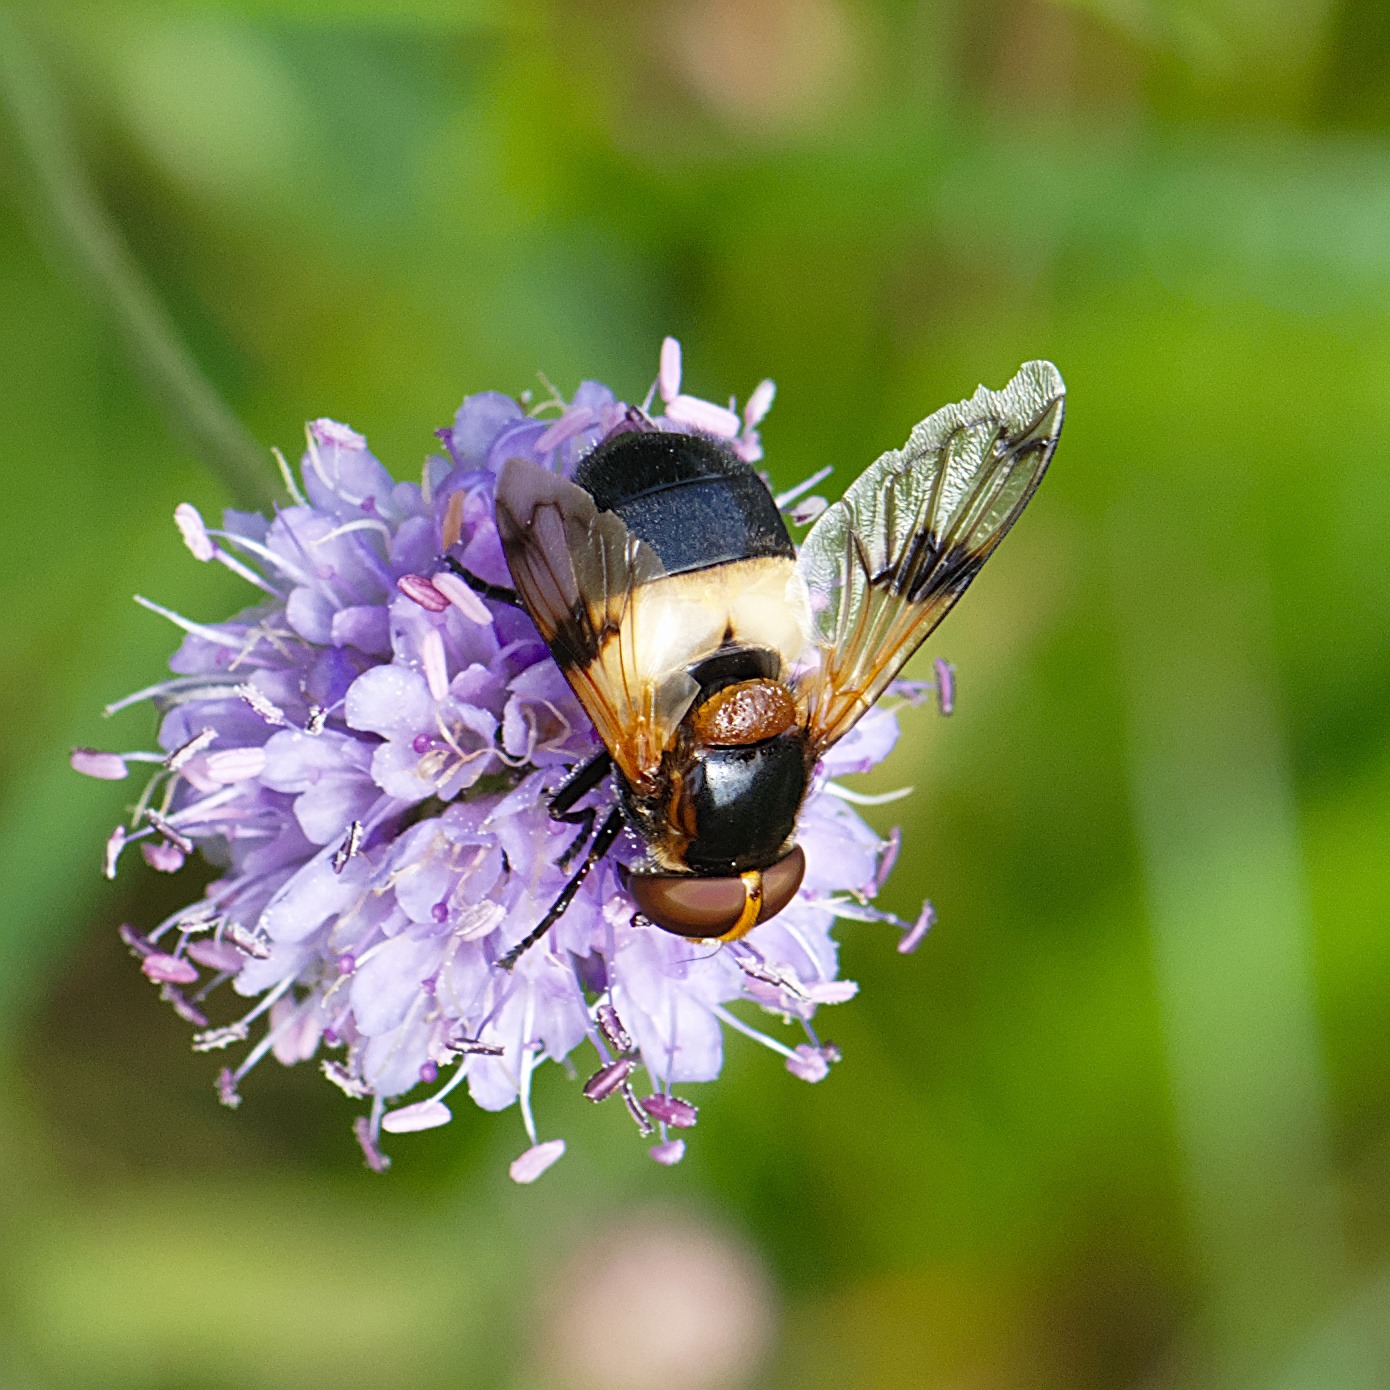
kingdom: Animalia
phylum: Arthropoda
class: Insecta
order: Diptera
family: Syrphidae
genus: Volucella
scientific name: Volucella pellucens
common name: Hvidbåndet humlesvirreflue
